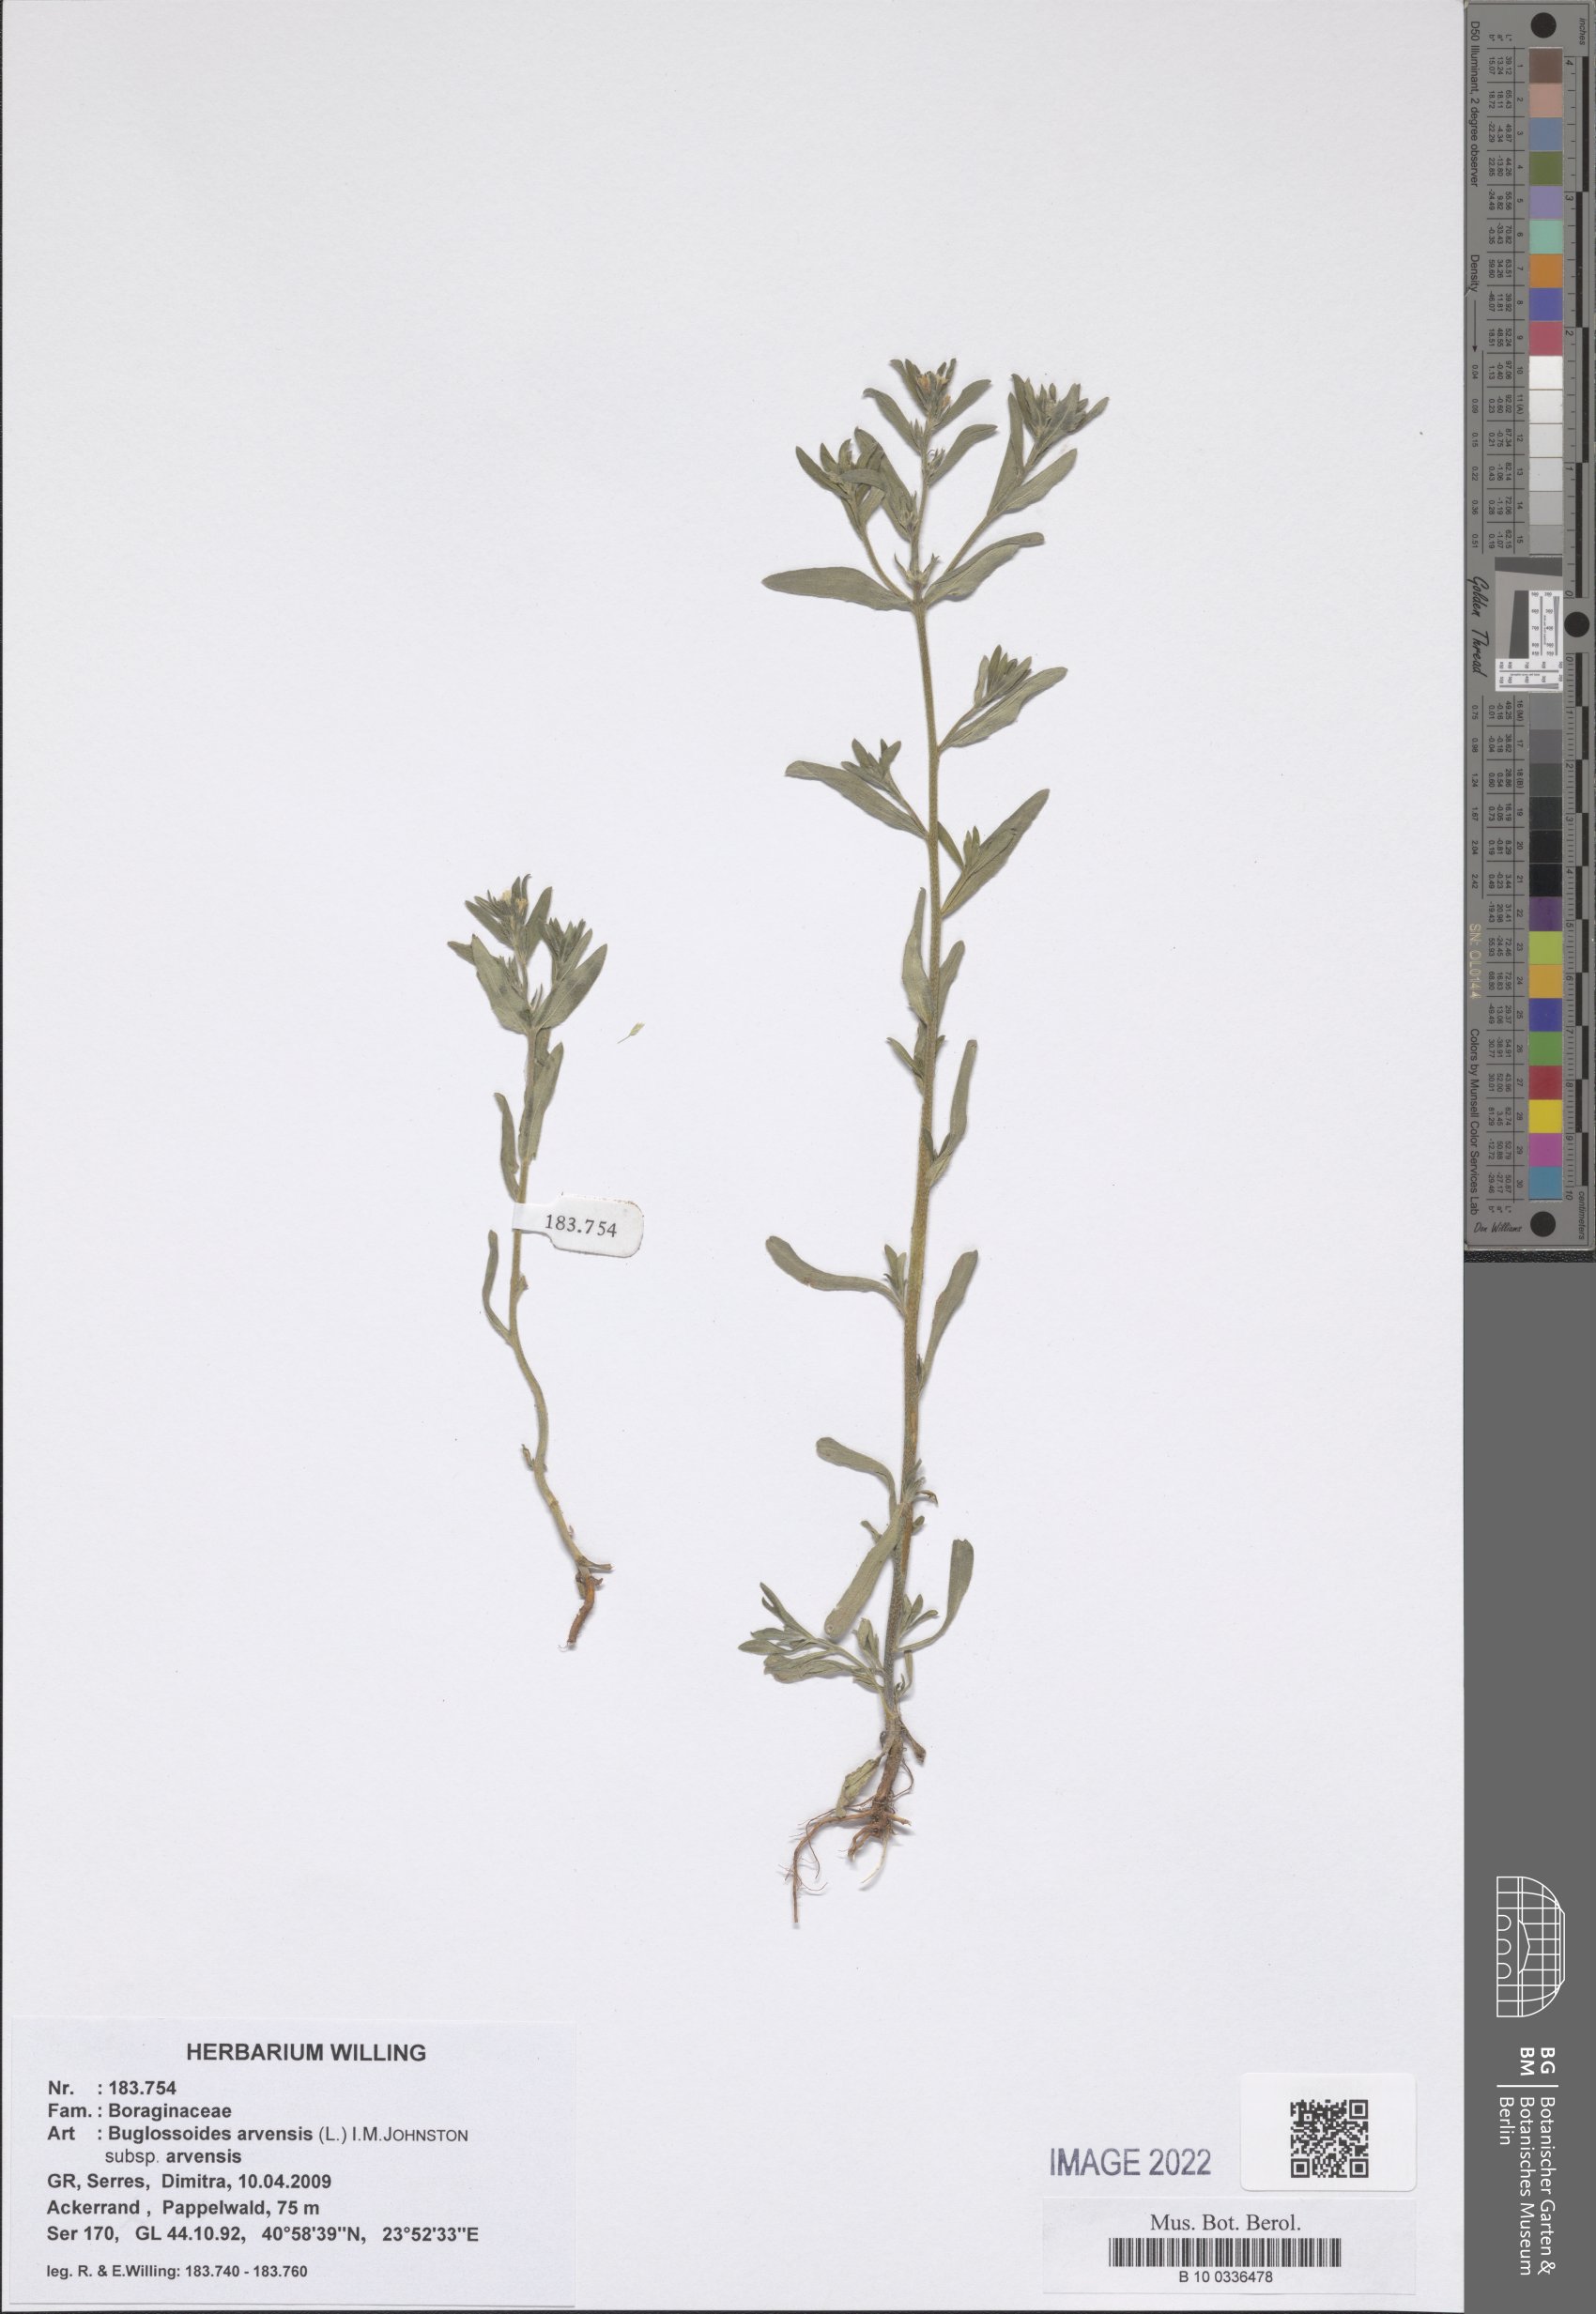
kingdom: Plantae
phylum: Tracheophyta
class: Magnoliopsida
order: Boraginales
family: Boraginaceae
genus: Buglossoides
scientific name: Buglossoides arvensis
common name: Corn gromwell
